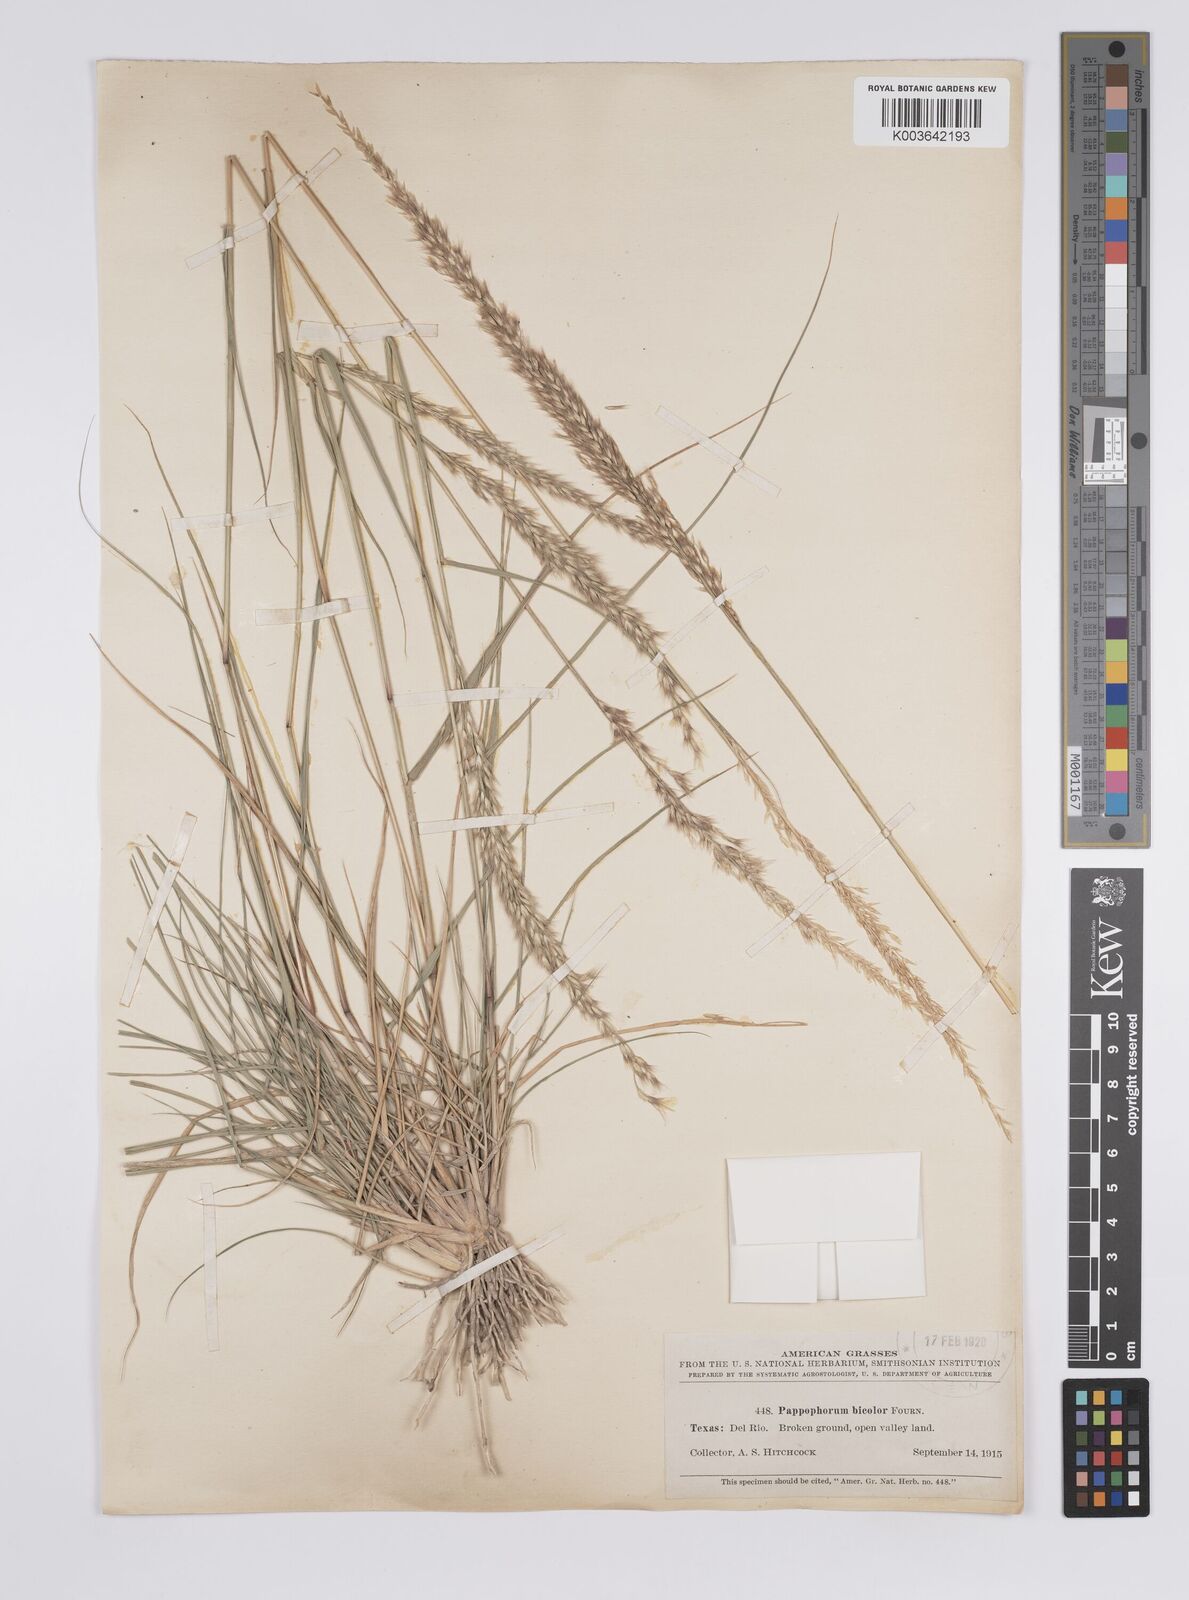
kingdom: Plantae
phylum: Tracheophyta
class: Liliopsida
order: Poales
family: Poaceae
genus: Pappophorum
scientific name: Pappophorum bicolor
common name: Pink pappus grass
